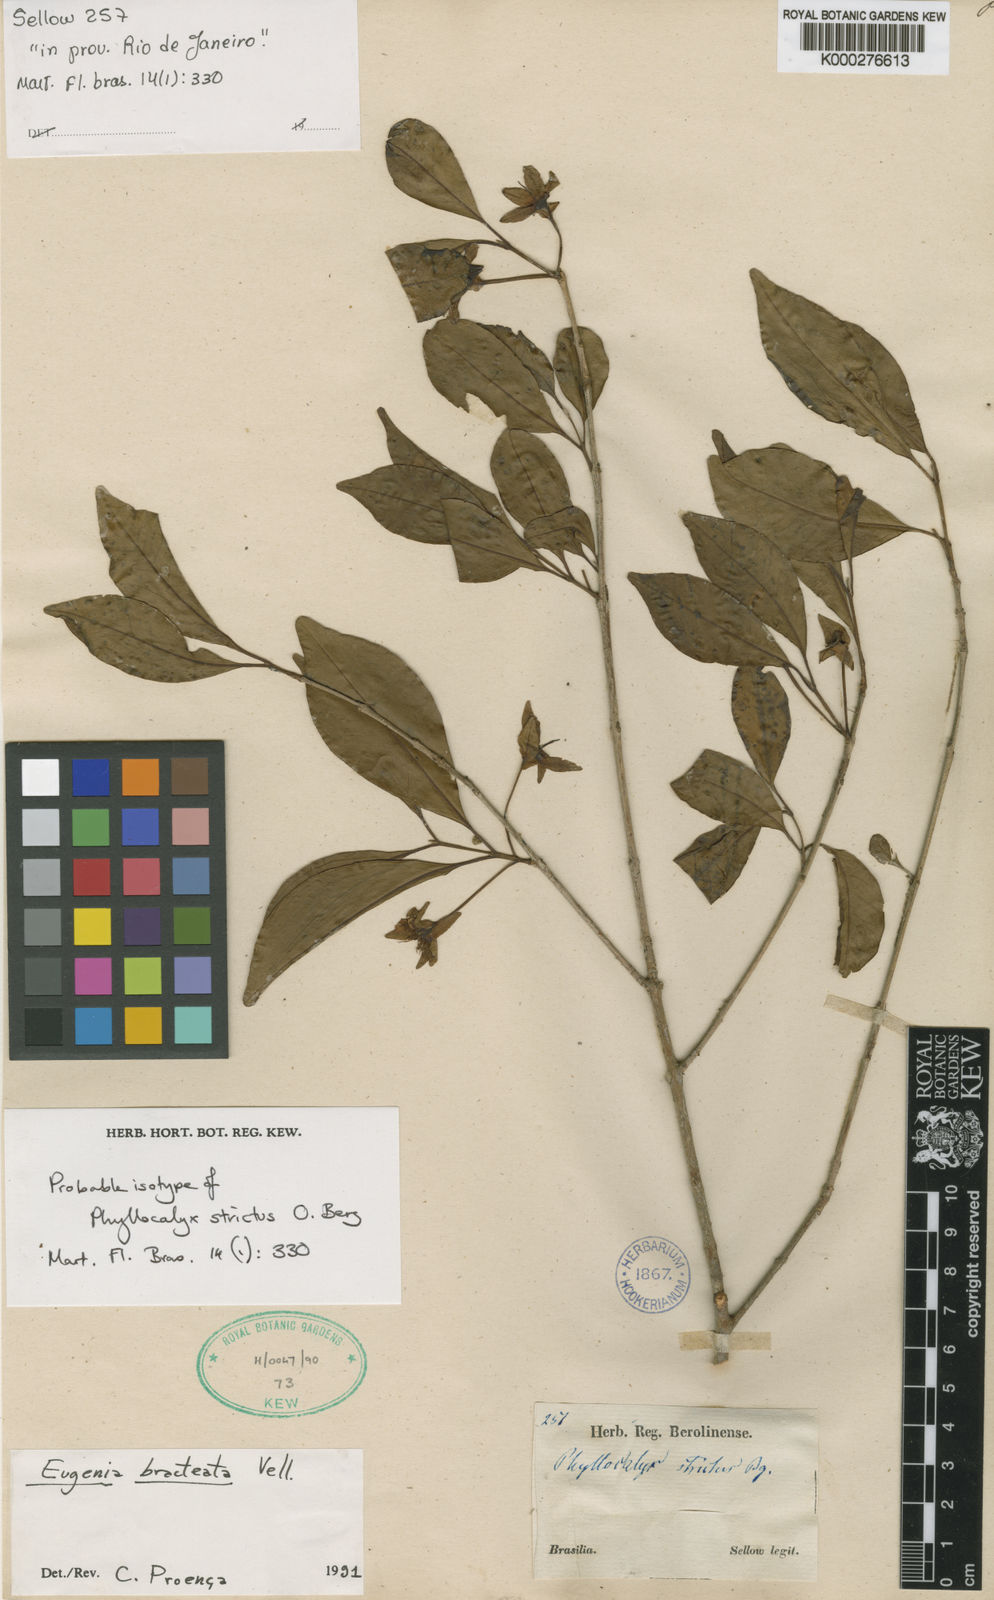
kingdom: Plantae
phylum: Tracheophyta
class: Magnoliopsida
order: Myrtales
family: Myrtaceae
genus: Eugenia
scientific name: Eugenia involucrata
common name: Cherry-of-the-rio grande
